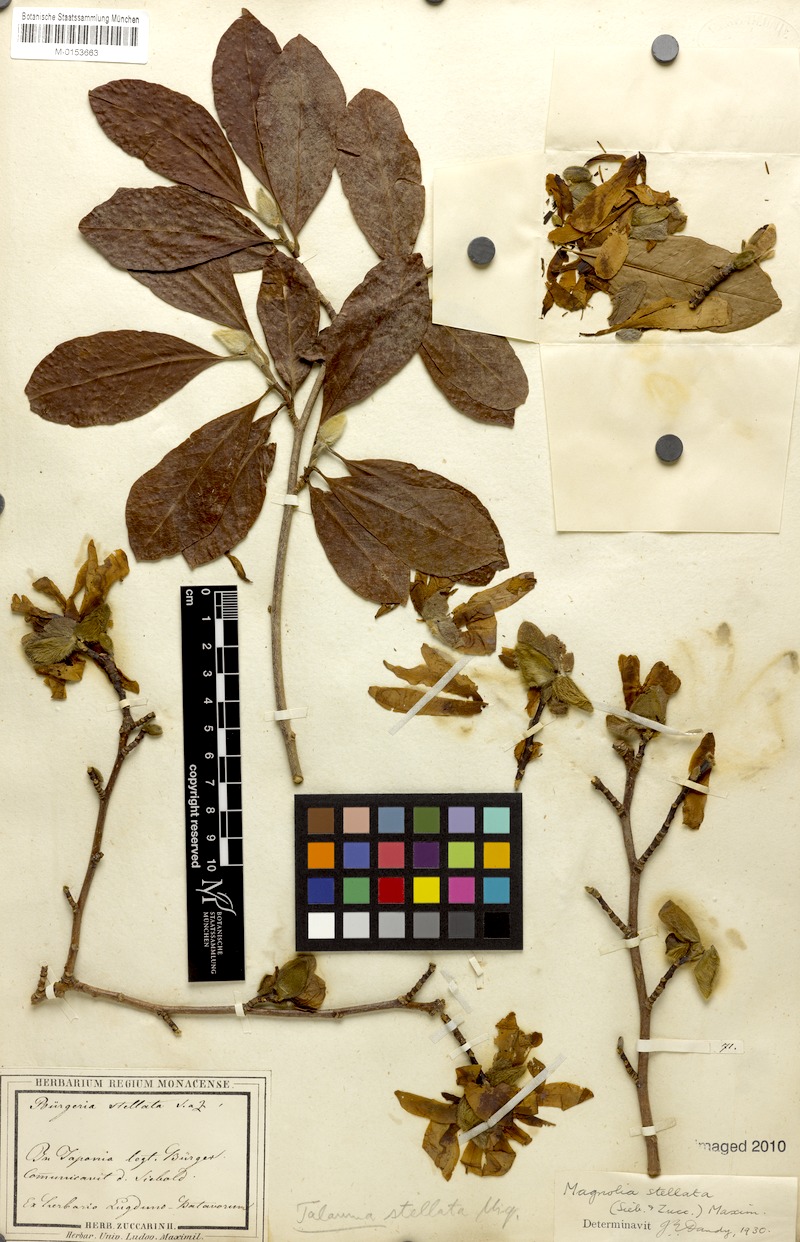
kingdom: Plantae
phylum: Tracheophyta
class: Magnoliopsida
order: Magnoliales
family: Magnoliaceae
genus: Magnolia
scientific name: Magnolia stellata
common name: Star magnolia
